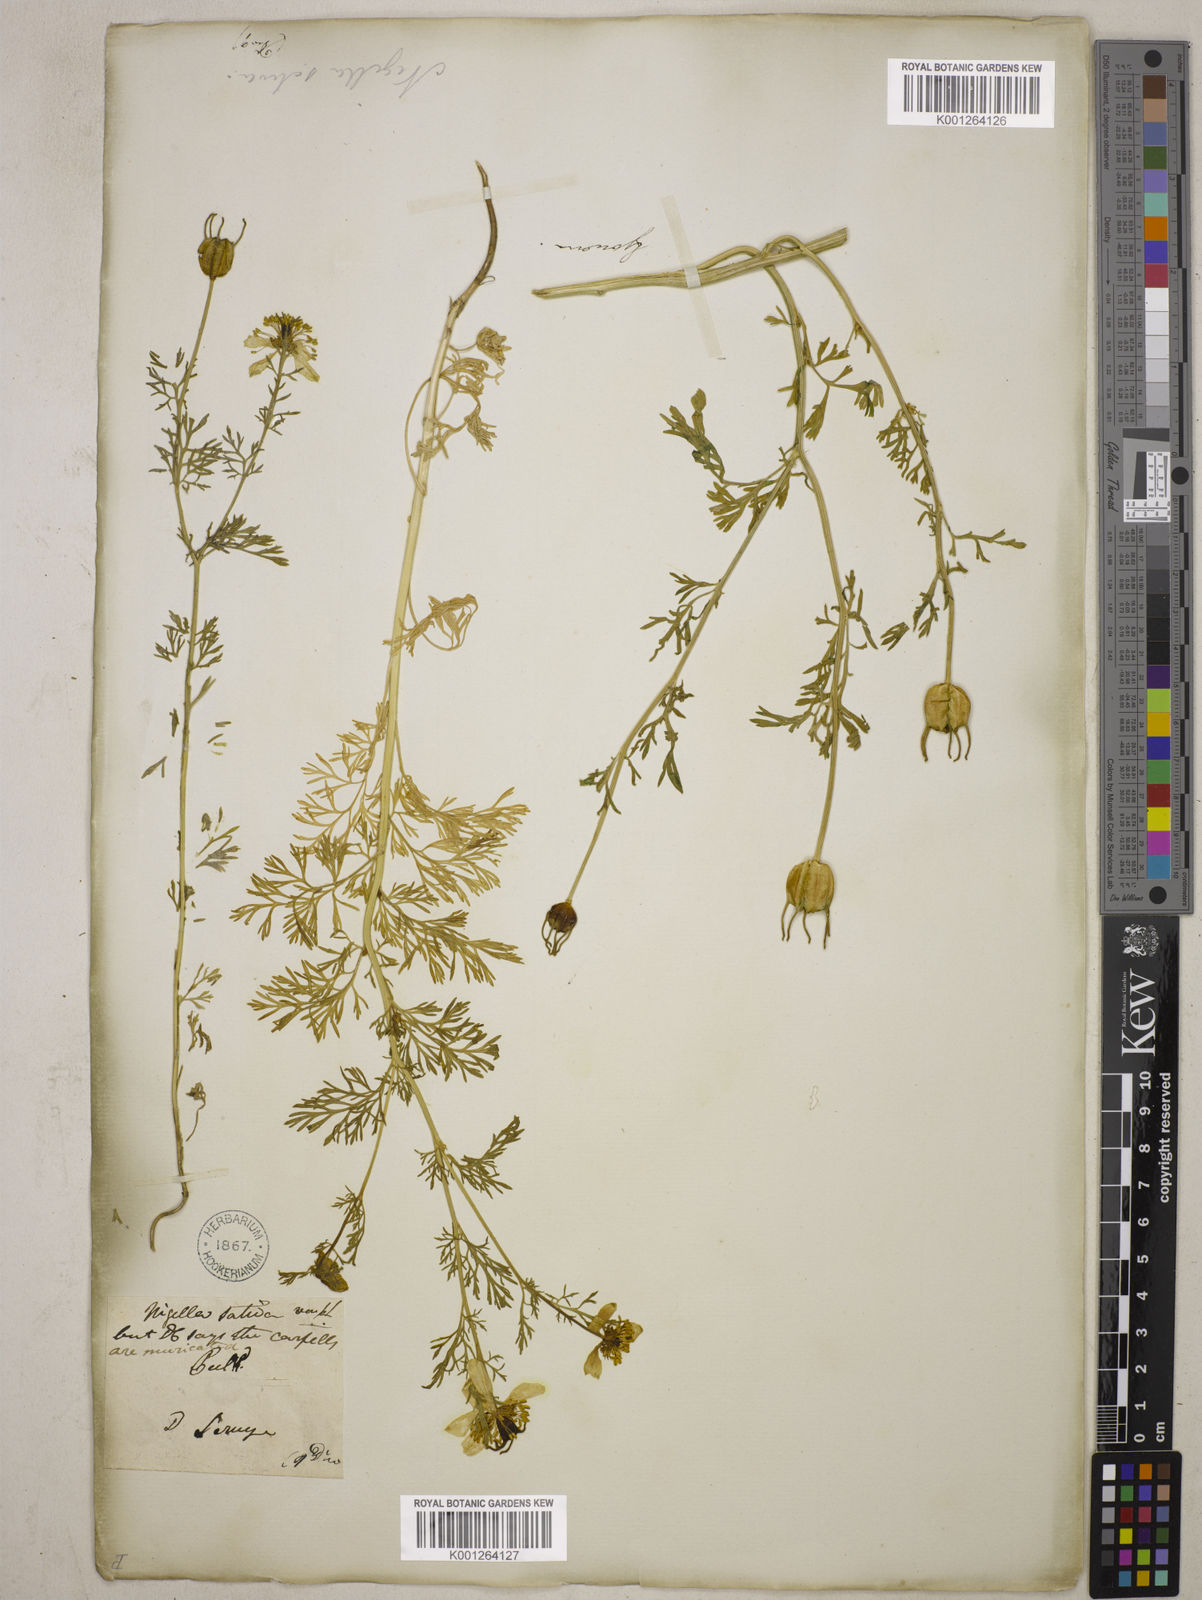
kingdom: Plantae
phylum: Tracheophyta
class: Magnoliopsida
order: Ranunculales
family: Ranunculaceae
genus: Nigella
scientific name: Nigella sativa
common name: Black-cumin
